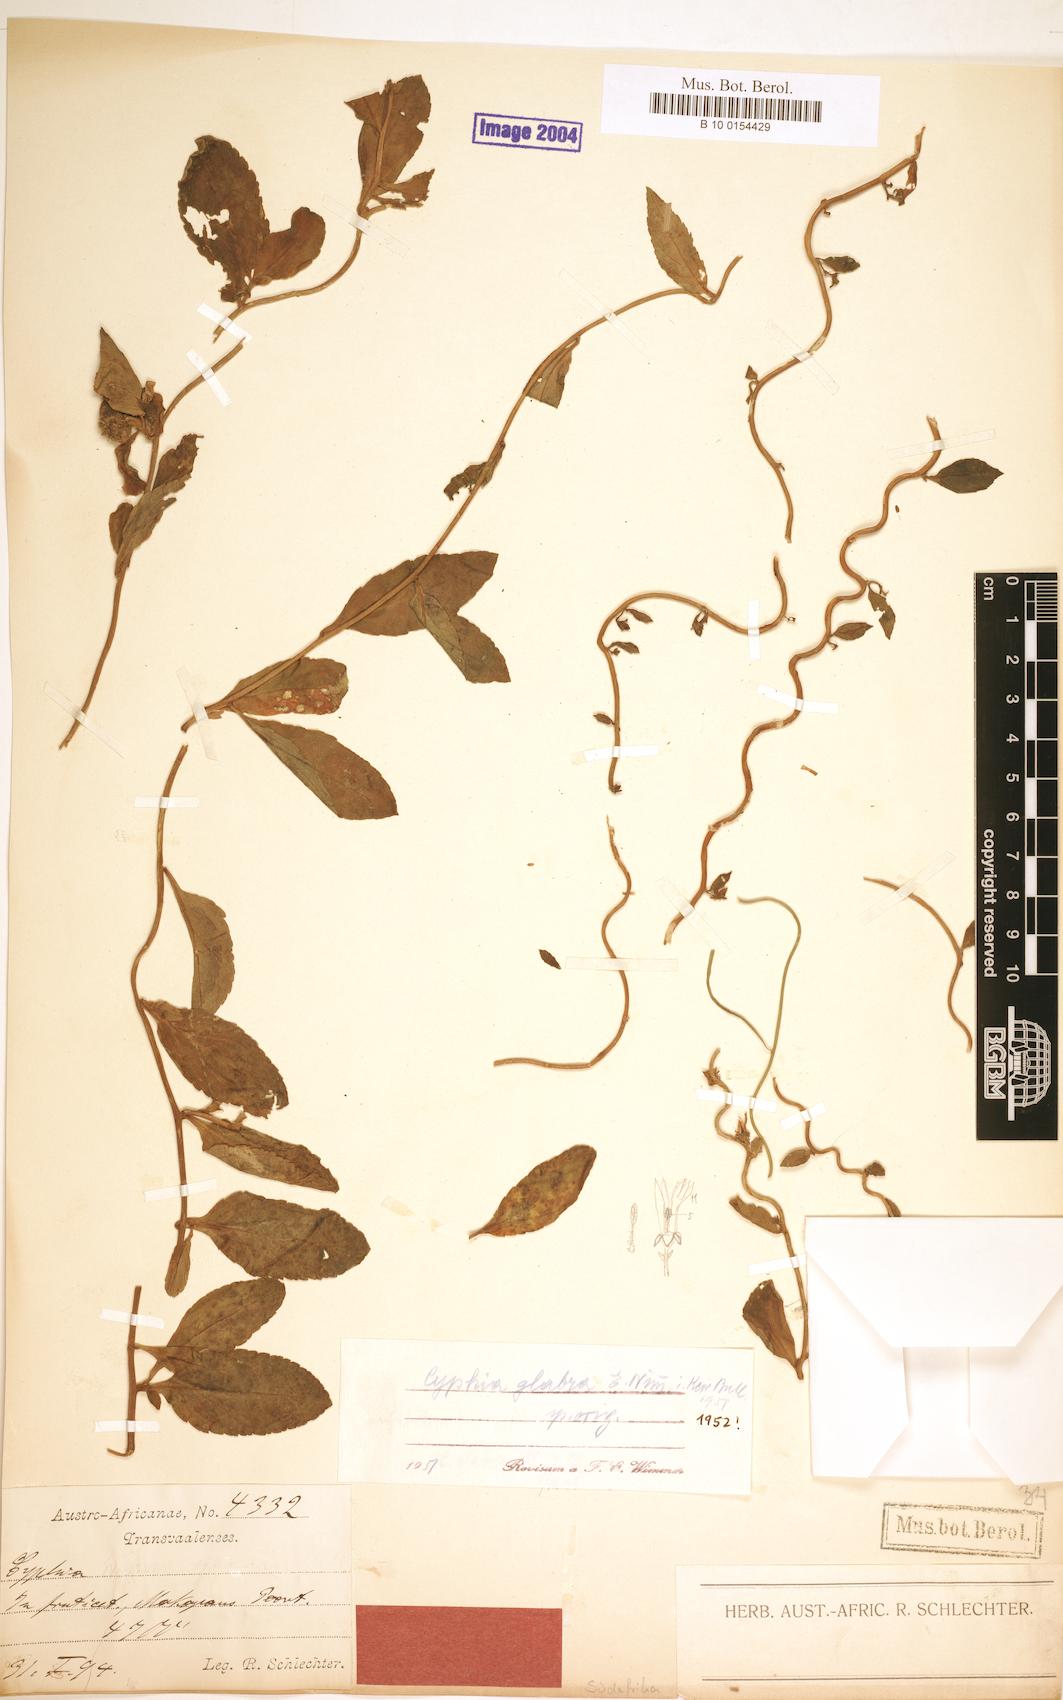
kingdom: Plantae
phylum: Tracheophyta
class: Magnoliopsida
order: Asterales
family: Campanulaceae
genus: Cyphia
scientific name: Cyphia glabra
